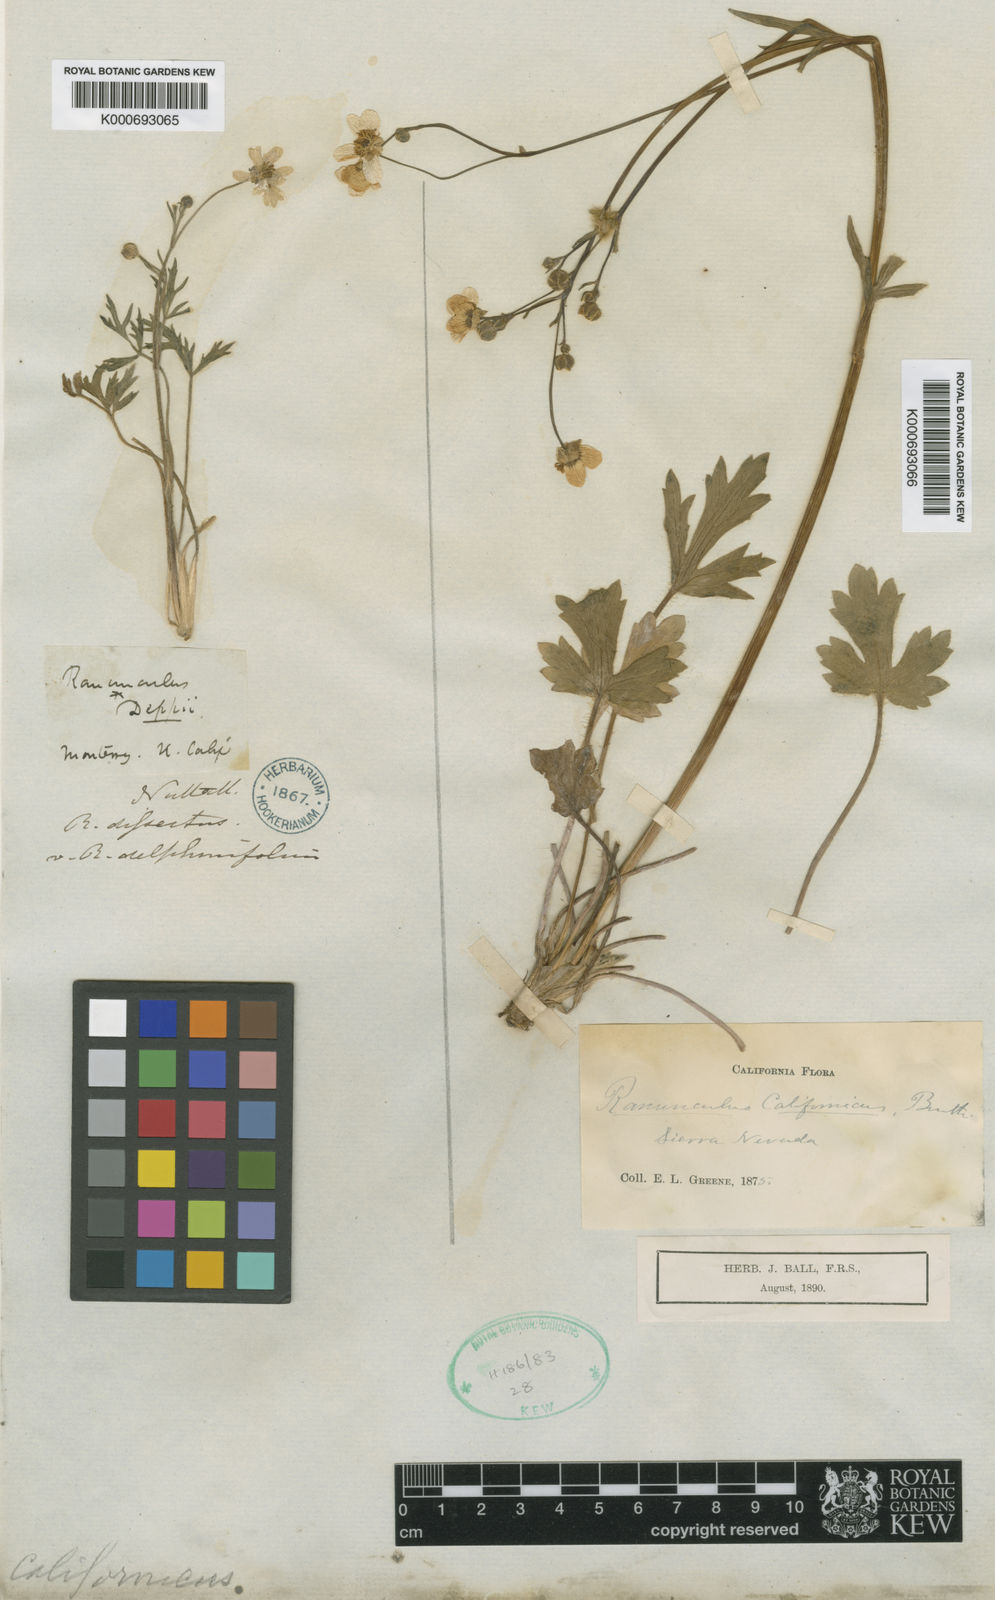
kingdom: Plantae
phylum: Tracheophyta
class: Magnoliopsida
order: Ranunculales
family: Ranunculaceae
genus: Ranunculus
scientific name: Ranunculus californicus
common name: California buttercup
